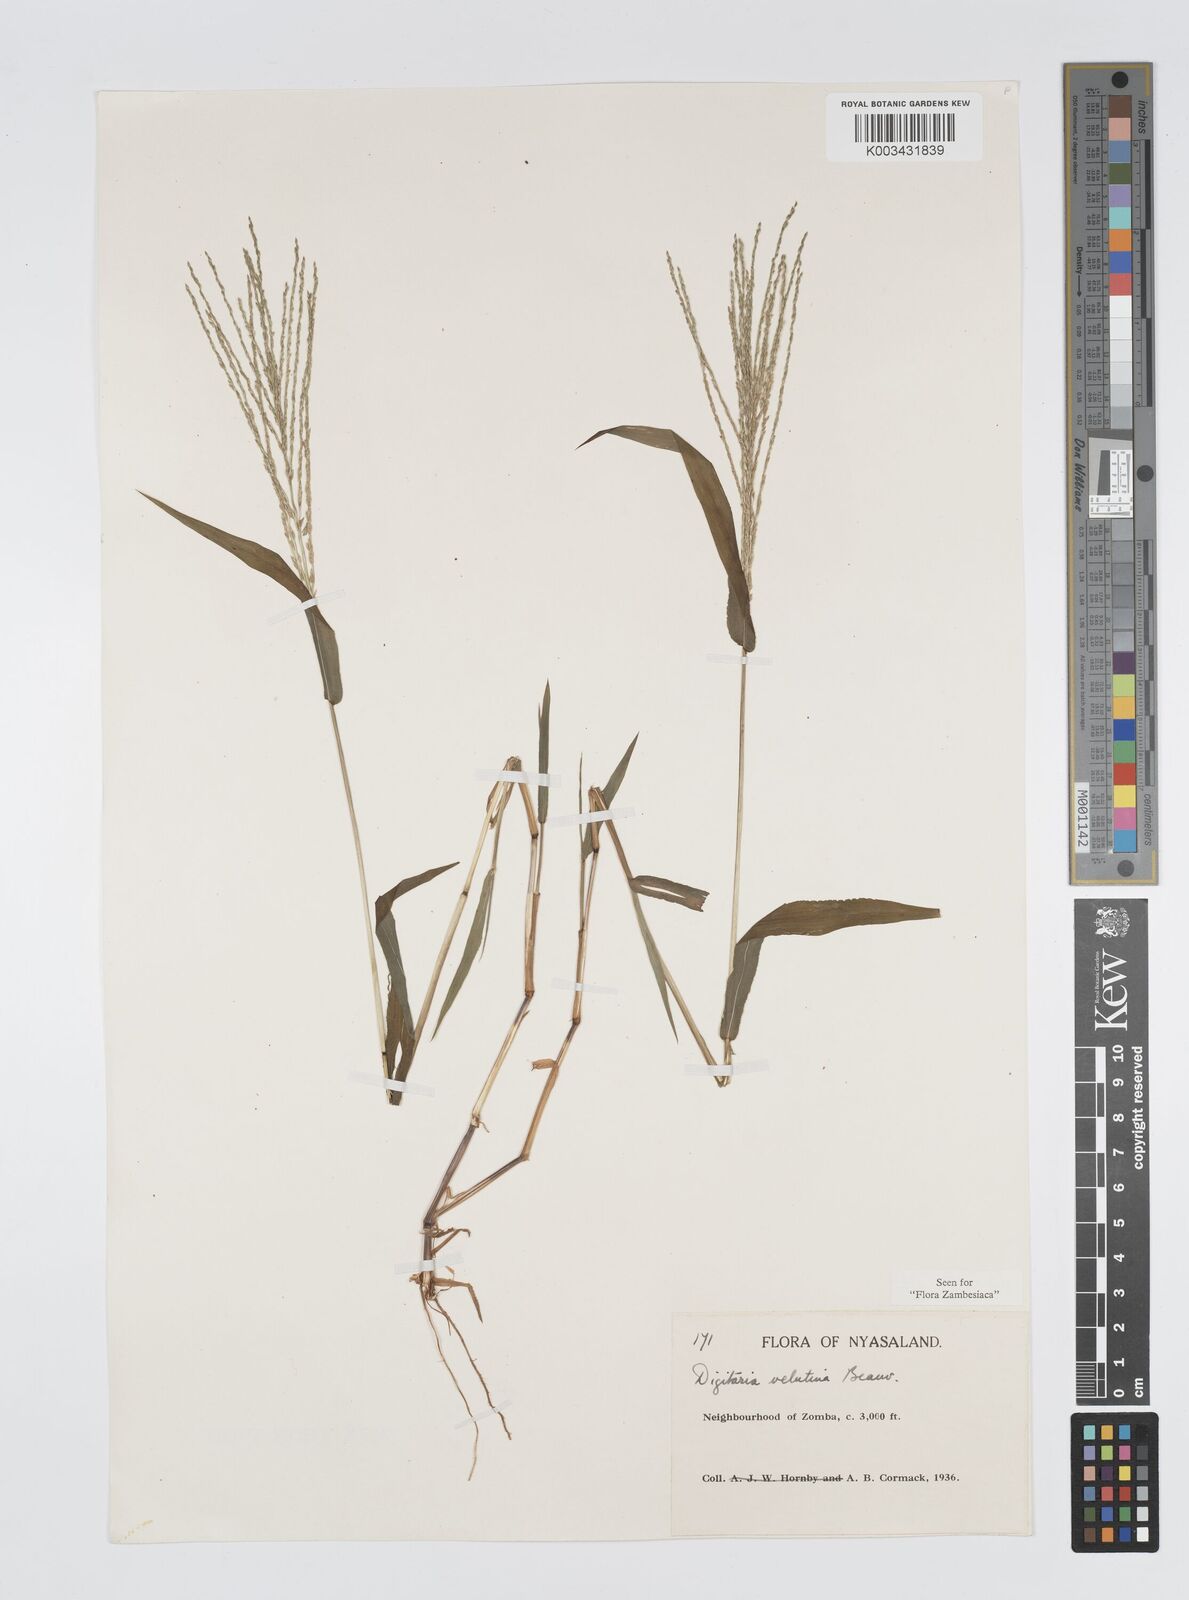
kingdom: Plantae
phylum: Tracheophyta
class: Liliopsida
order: Poales
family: Poaceae
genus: Digitaria
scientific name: Digitaria velutina
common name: Long-plume finger grass
